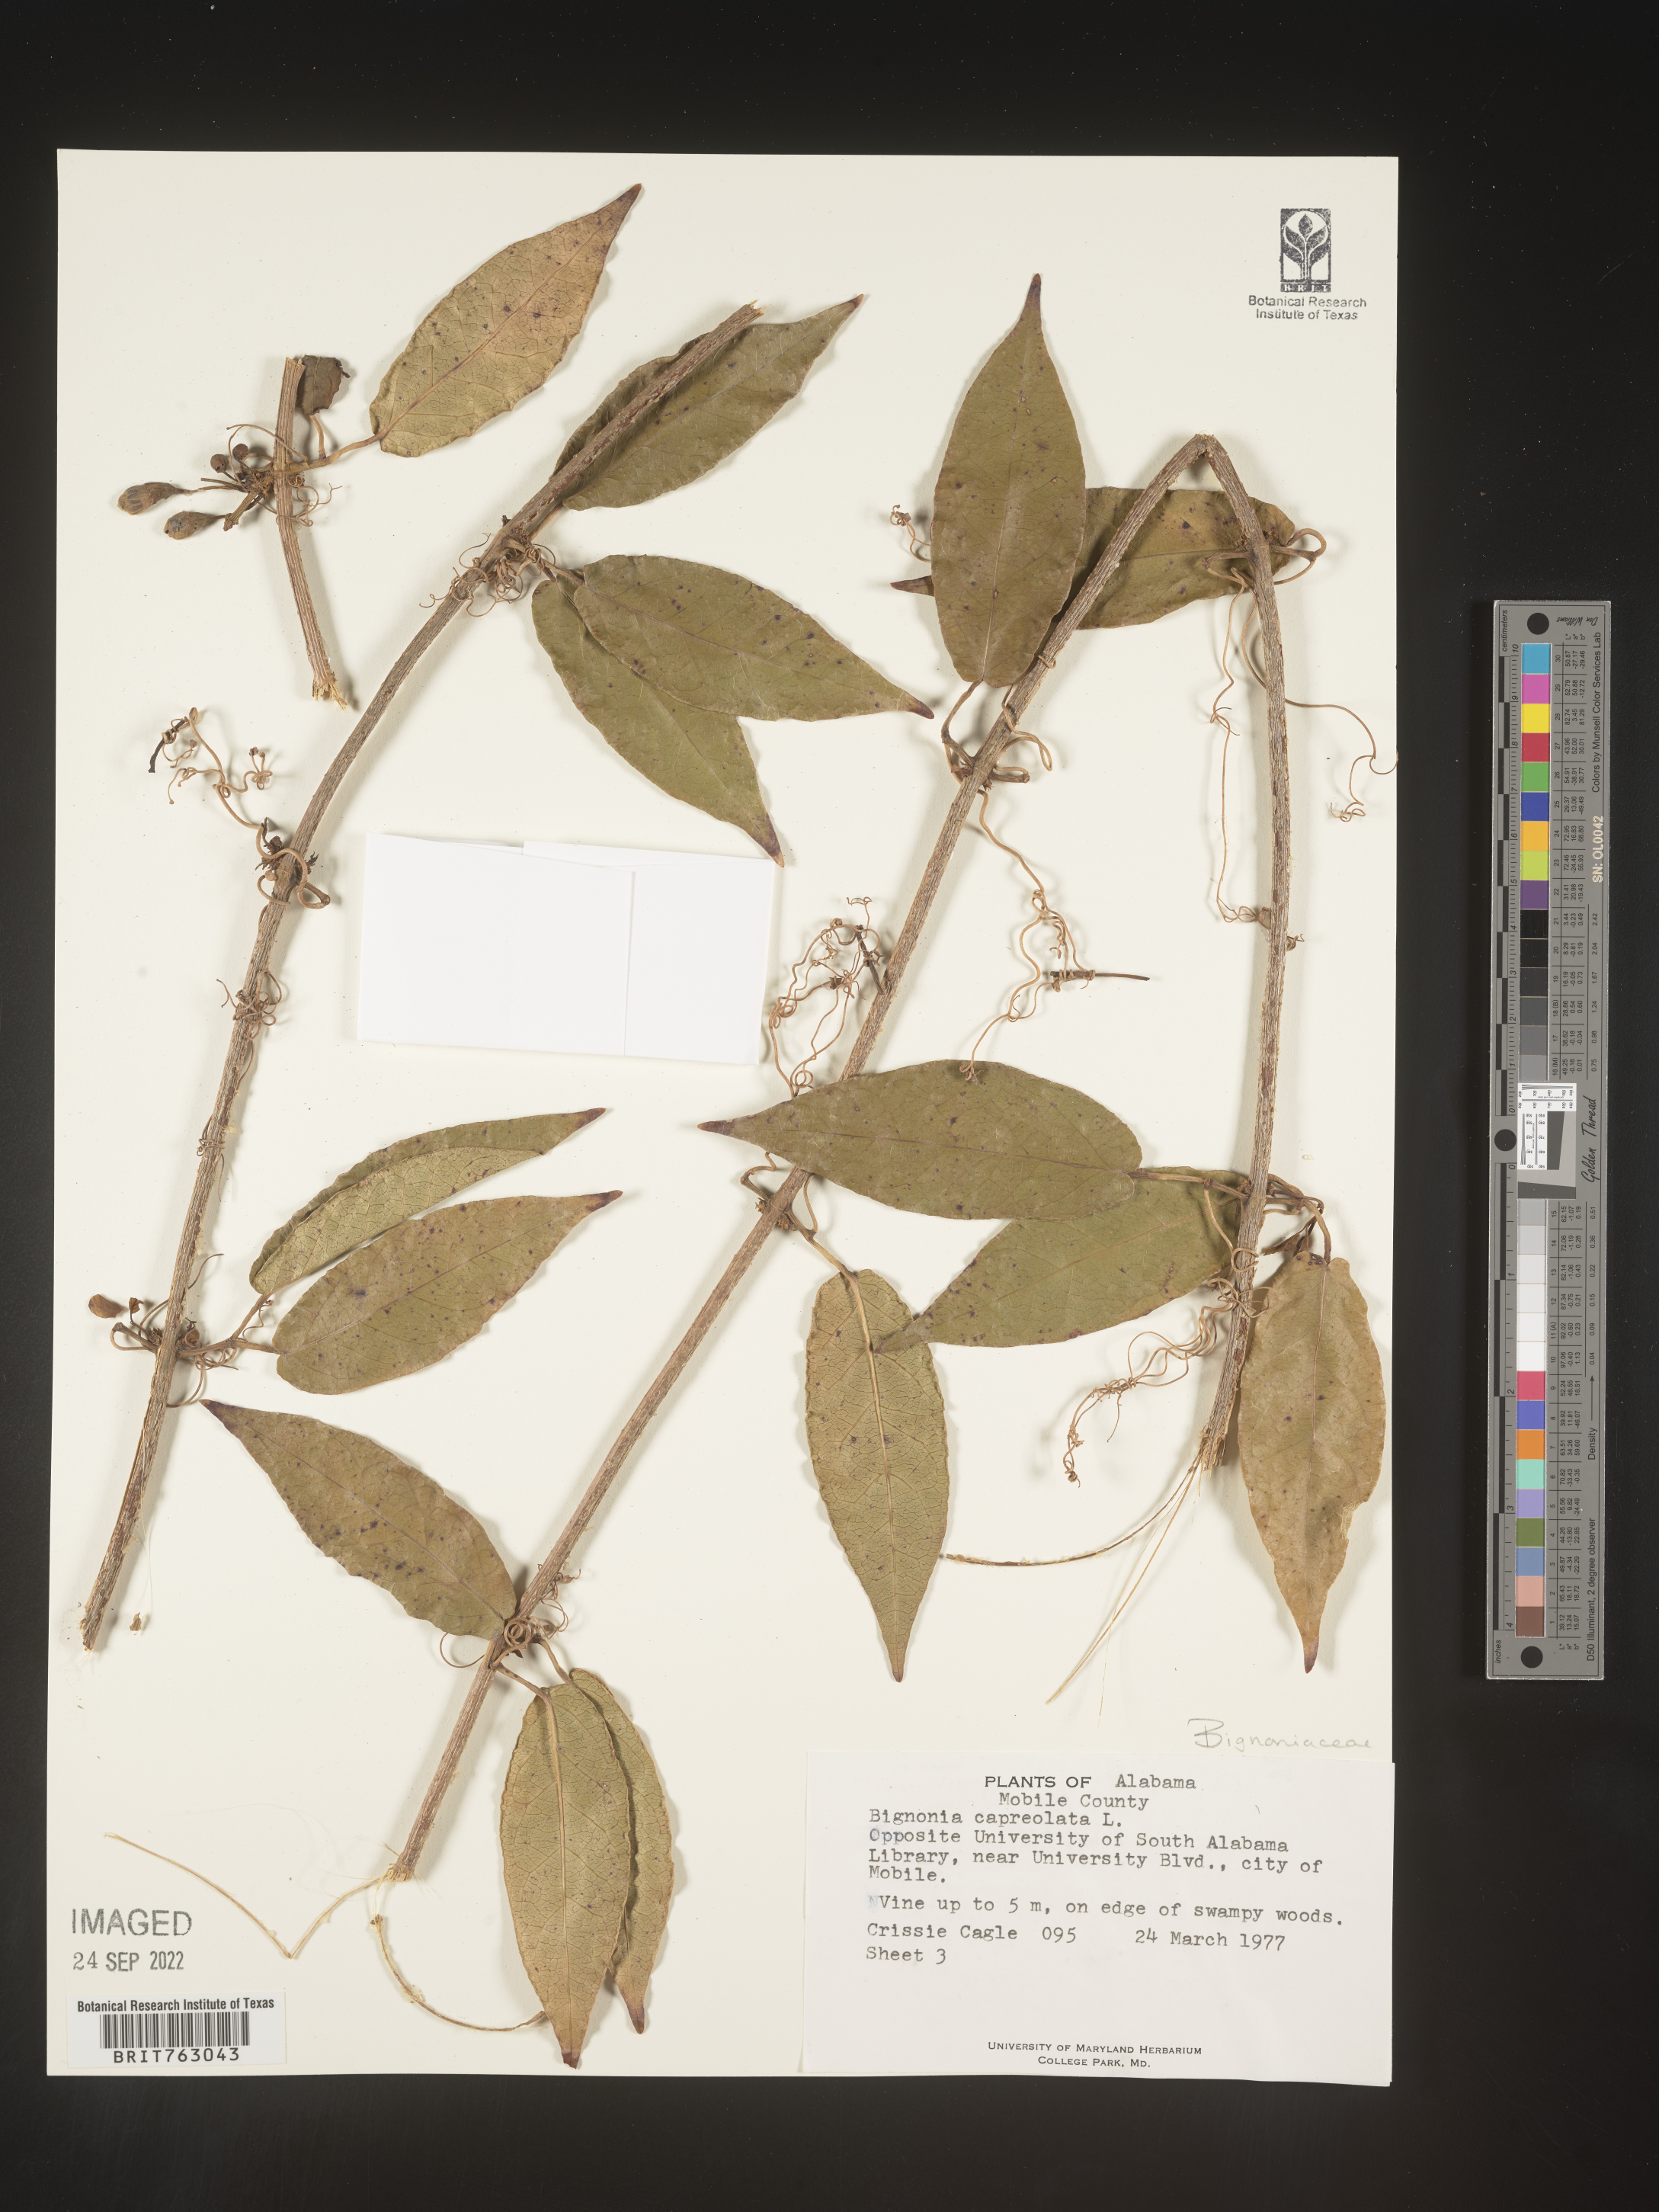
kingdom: Plantae
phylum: Tracheophyta
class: Magnoliopsida
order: Lamiales
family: Bignoniaceae
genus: Bignonia
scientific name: Bignonia capreolata
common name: Crossvine
